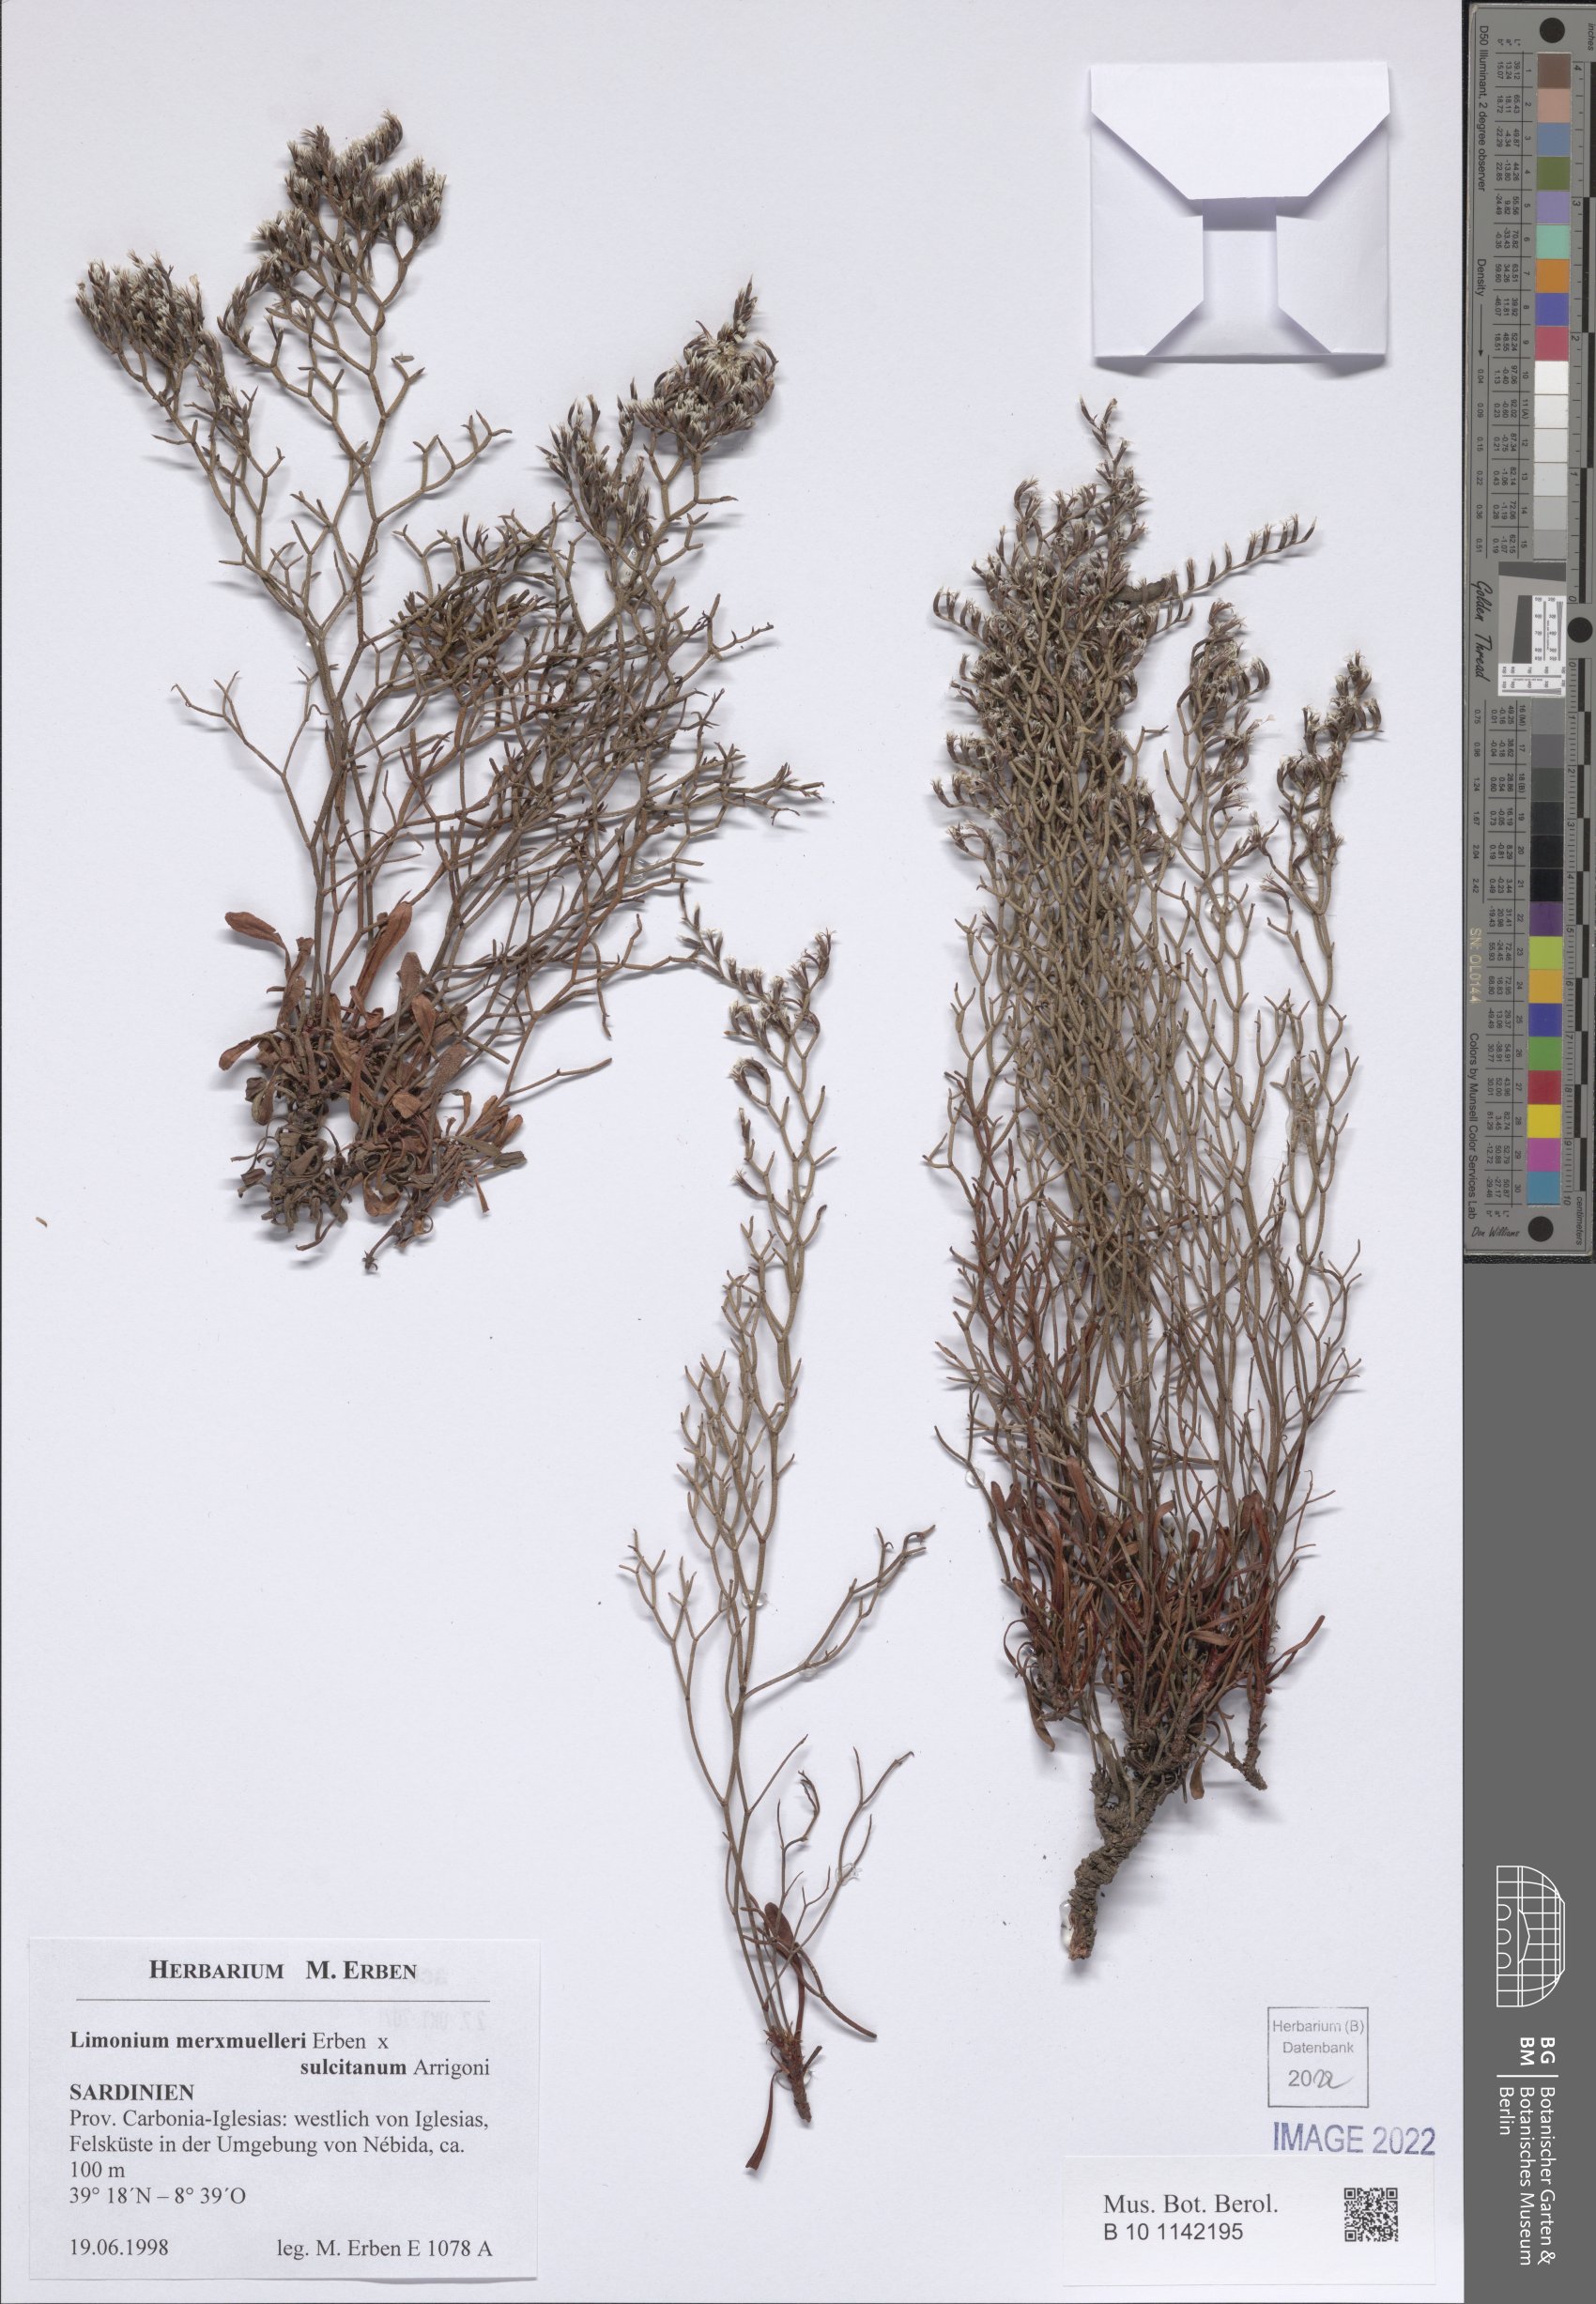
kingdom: Plantae
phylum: Tracheophyta
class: Magnoliopsida
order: Caryophyllales
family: Plumbaginaceae
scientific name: Plumbaginaceae
